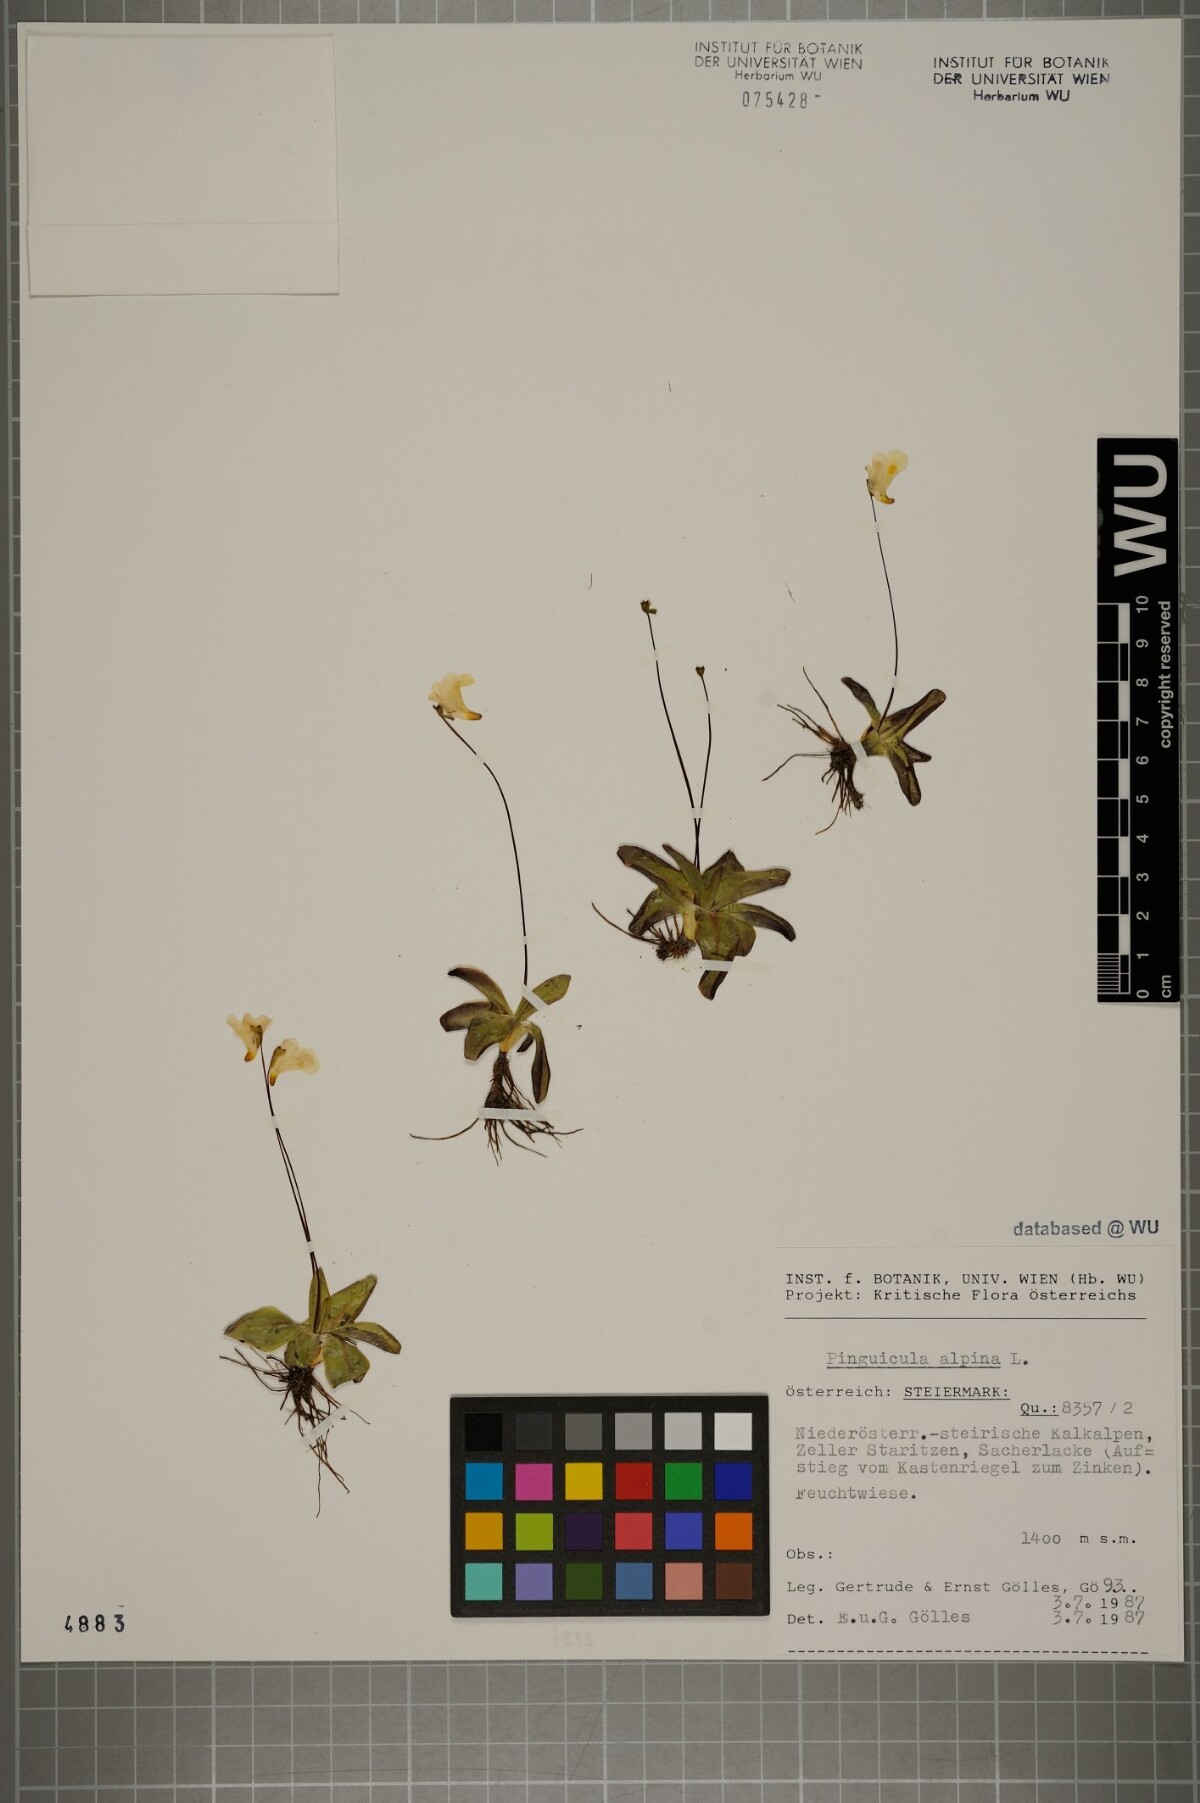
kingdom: Plantae
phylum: Tracheophyta
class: Magnoliopsida
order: Lamiales
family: Lentibulariaceae
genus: Pinguicula
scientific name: Pinguicula alpina
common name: Alpine butterwort
